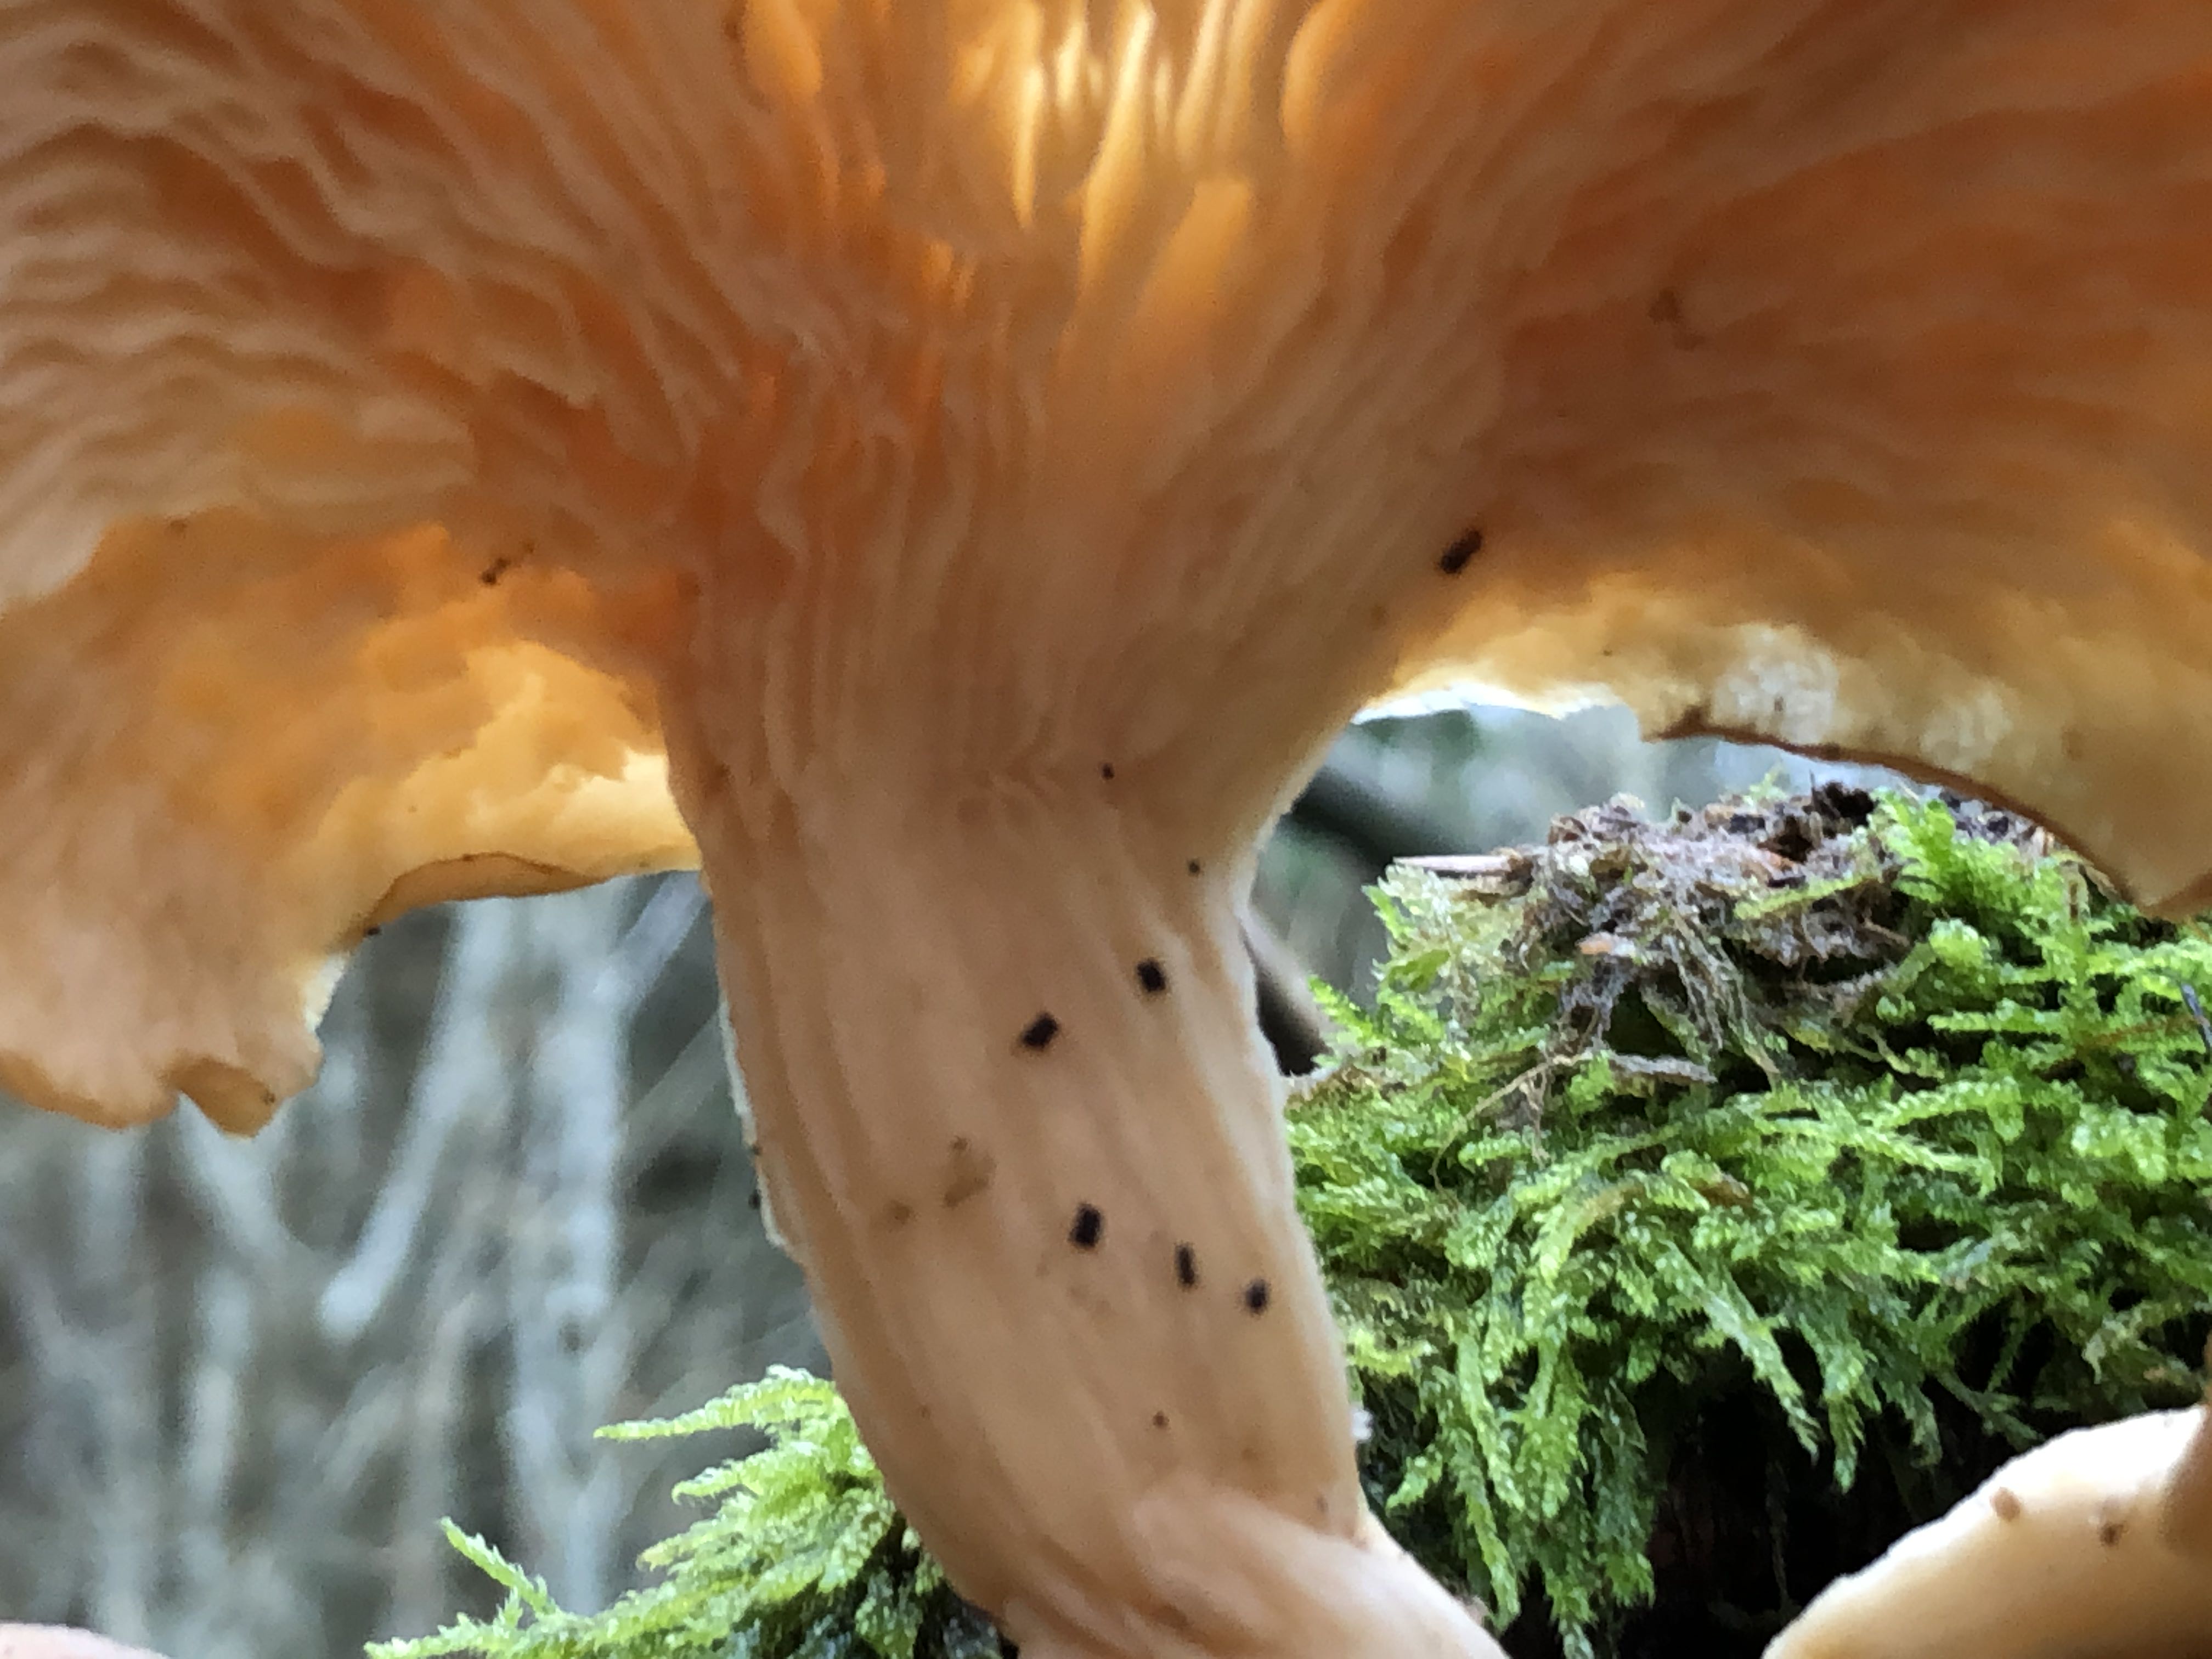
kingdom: Fungi
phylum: Basidiomycota
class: Agaricomycetes
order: Agaricales
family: Pleurotaceae
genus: Pleurotus
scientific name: Pleurotus
